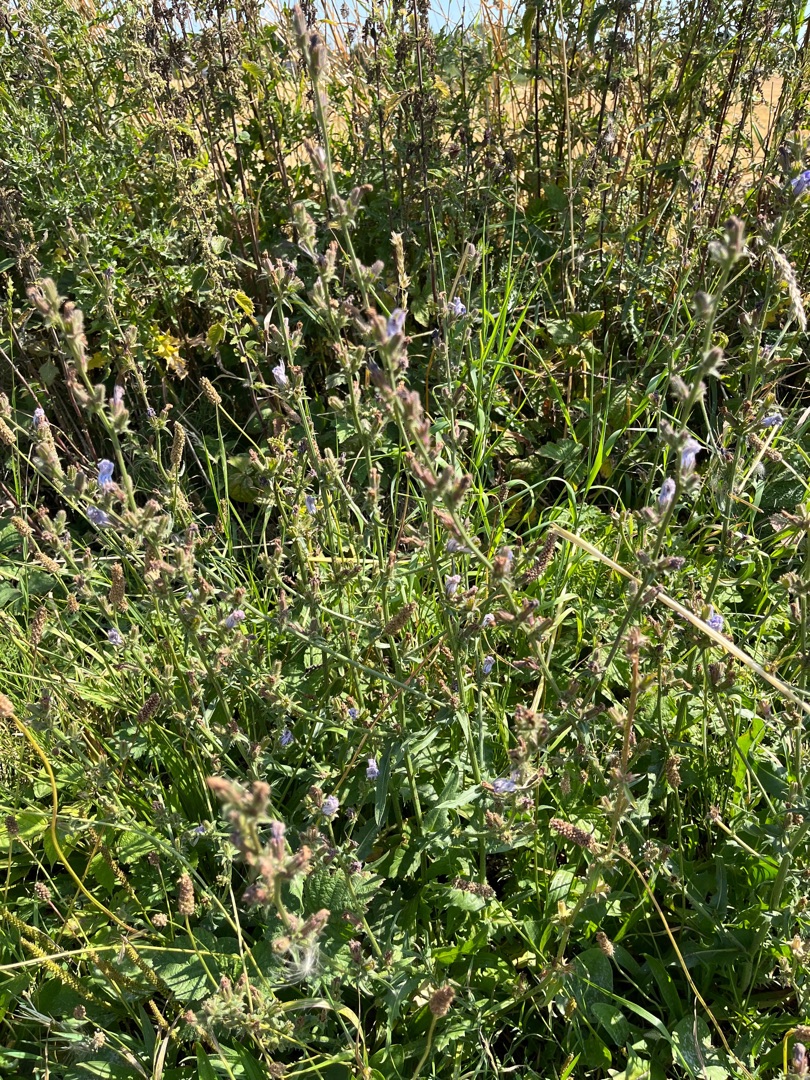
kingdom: Plantae
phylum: Tracheophyta
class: Magnoliopsida
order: Asterales
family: Asteraceae
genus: Cichorium
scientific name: Cichorium intybus
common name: Cikorie
